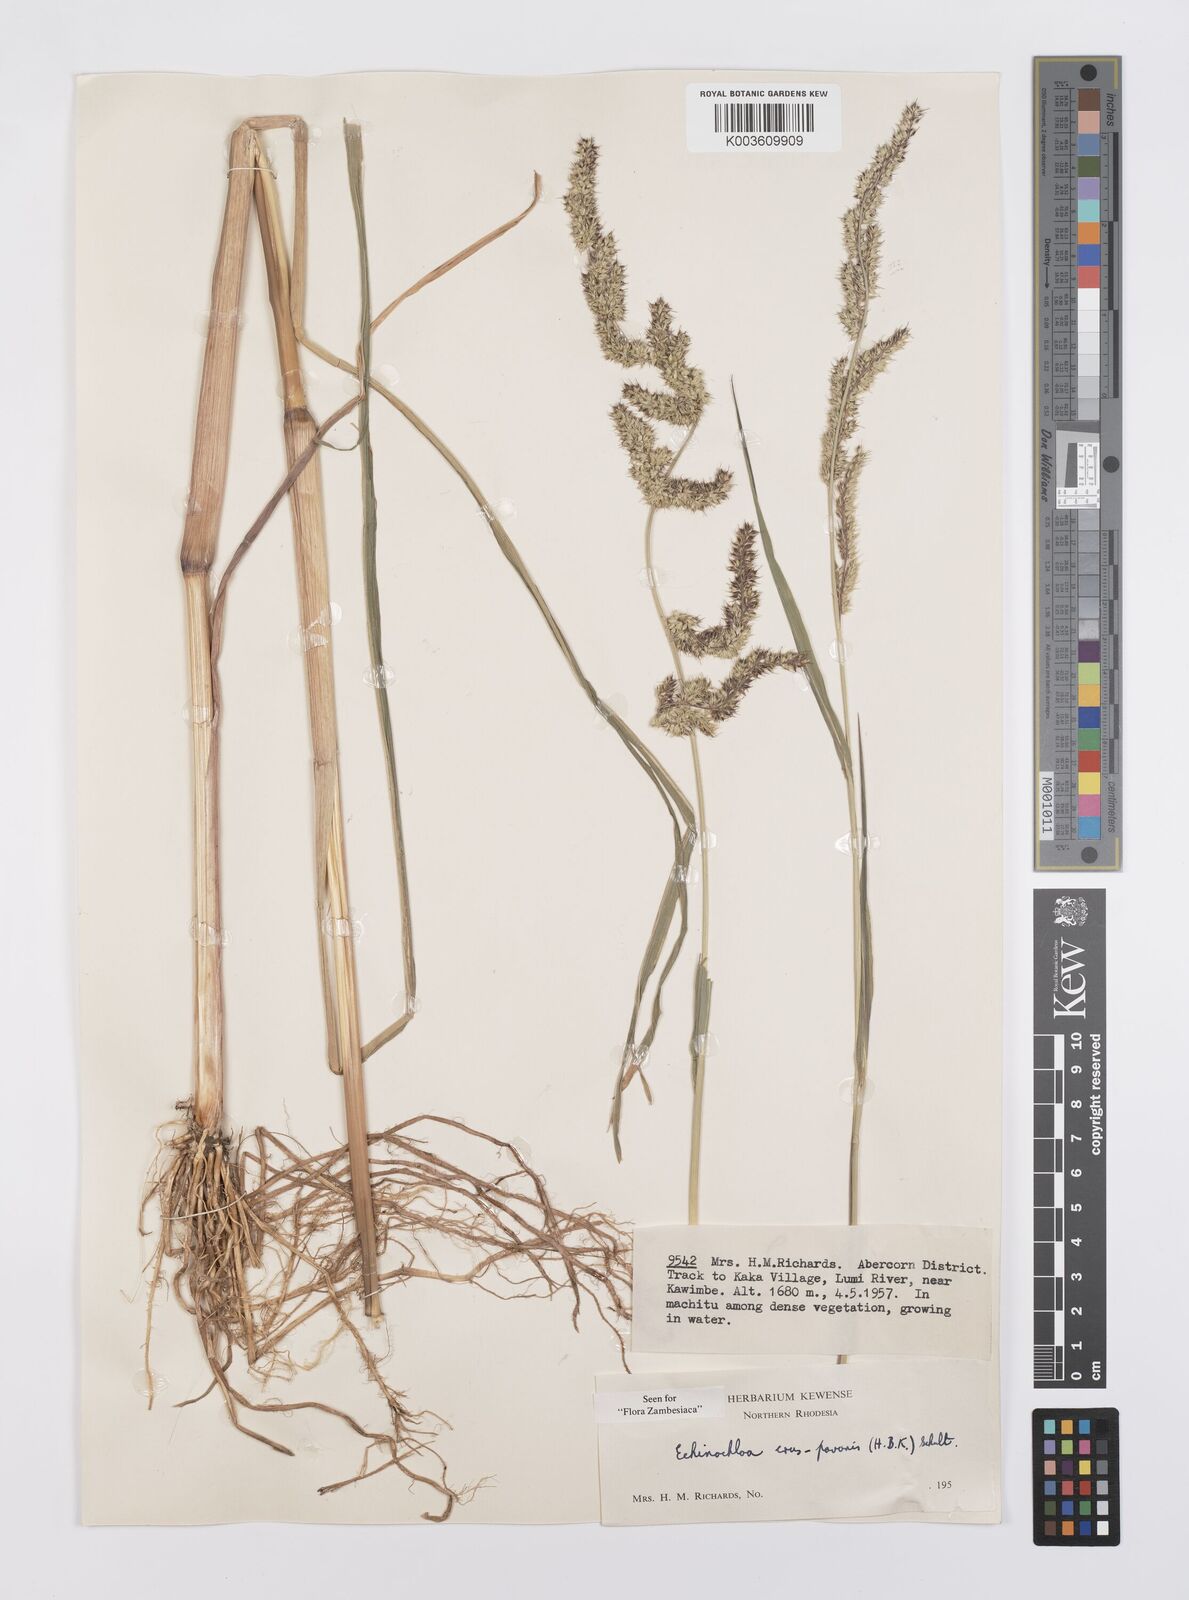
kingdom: Plantae
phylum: Tracheophyta
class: Liliopsida
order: Poales
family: Poaceae
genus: Echinochloa
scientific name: Echinochloa crus-pavonis
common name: Gulf cockspur grass
